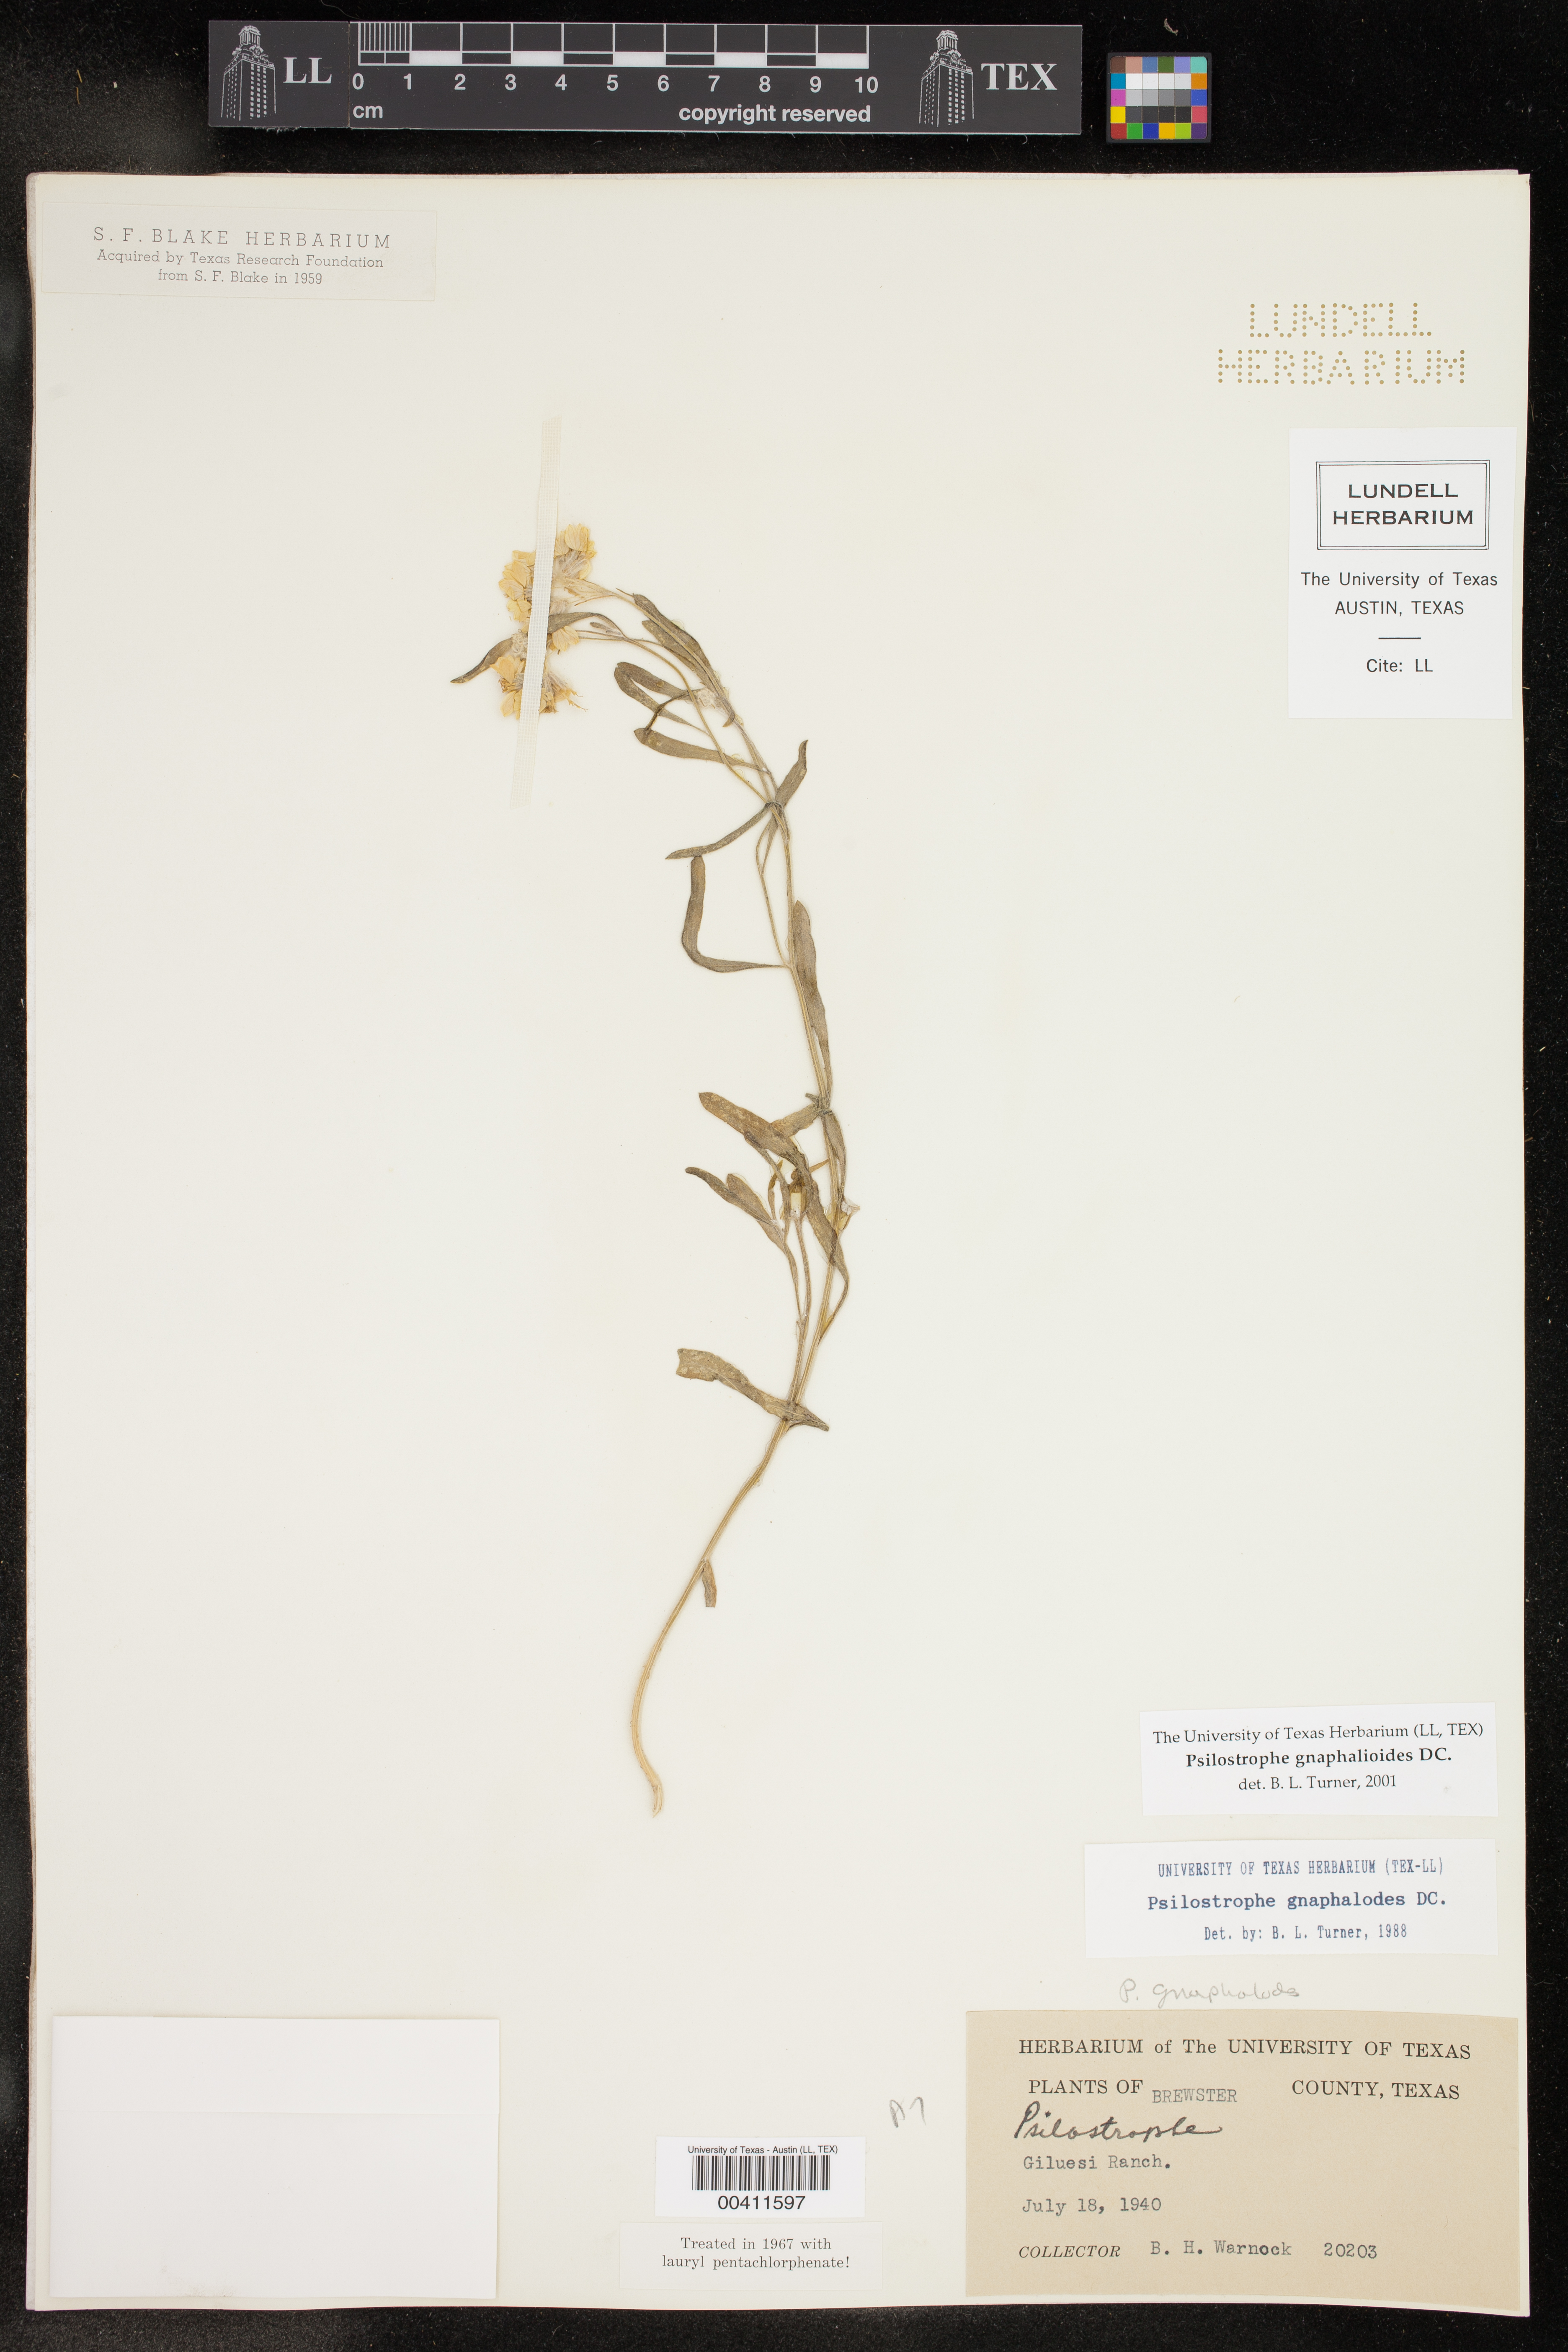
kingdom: Plantae
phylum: Tracheophyta
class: Magnoliopsida
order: Asterales
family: Asteraceae
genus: Psilostrophe
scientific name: Psilostrophe gnaphalioides
